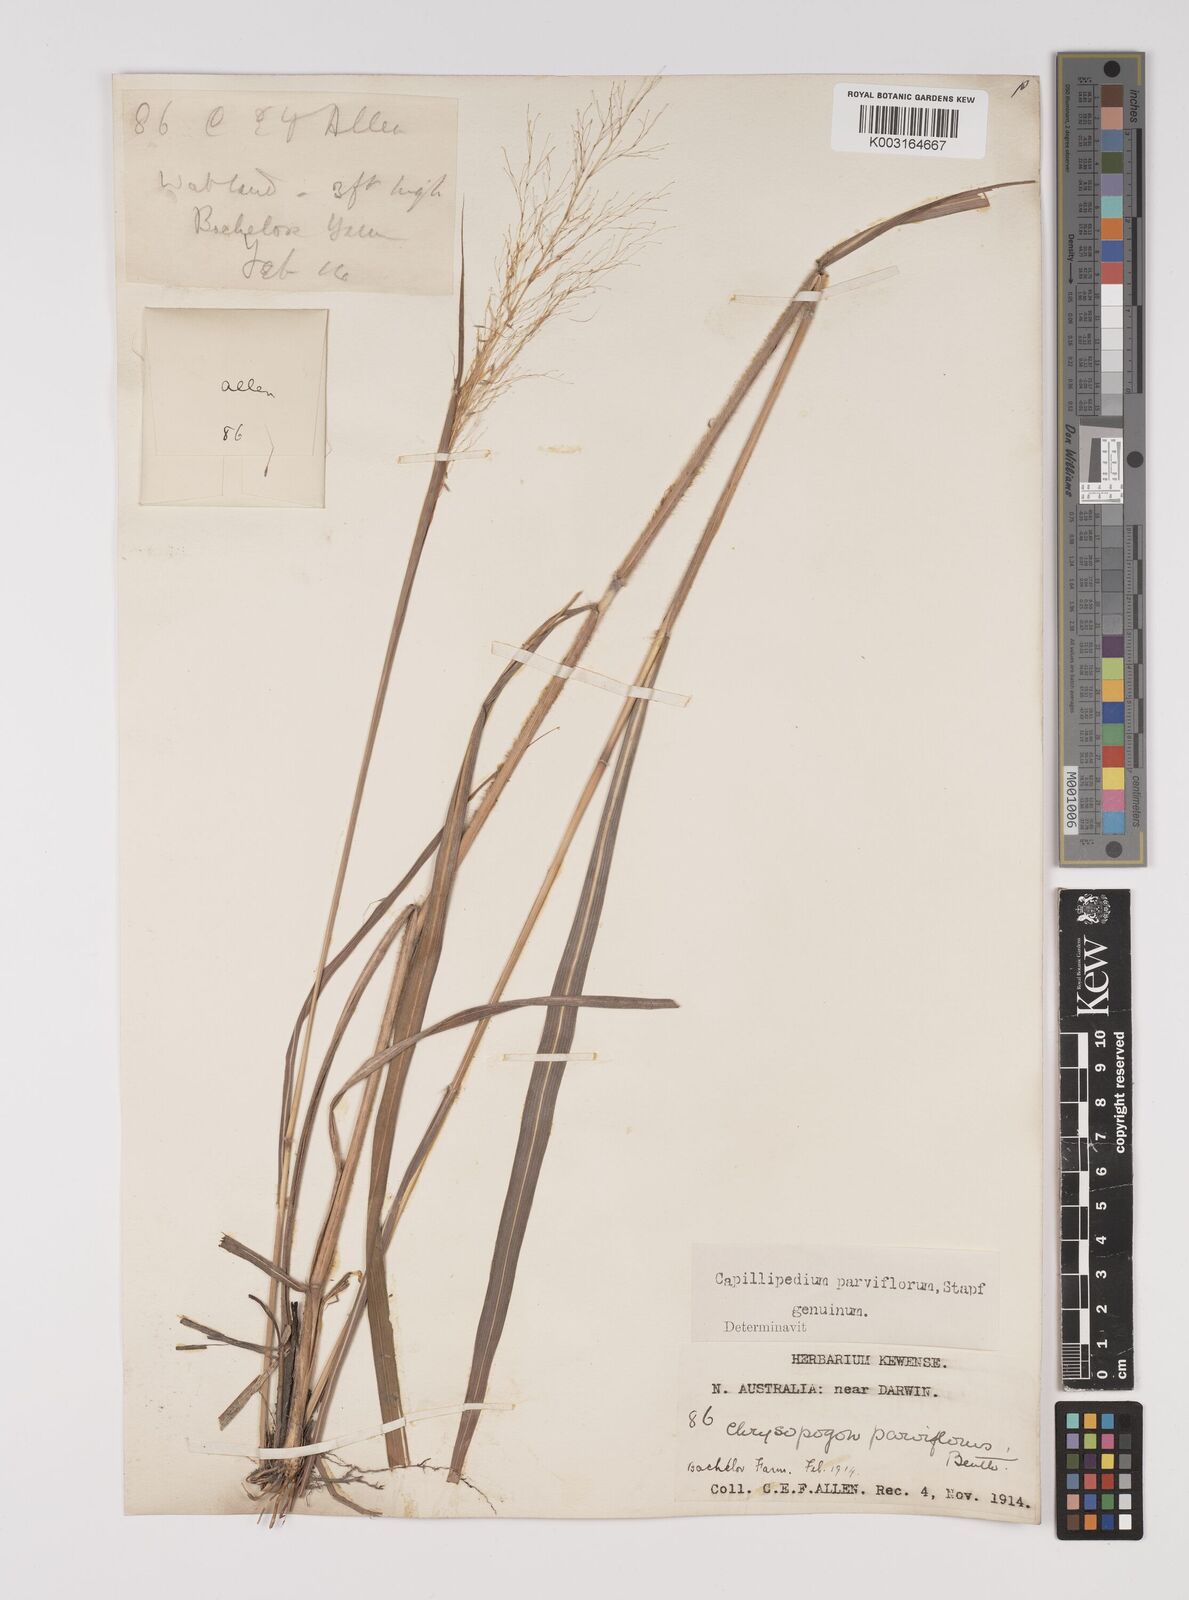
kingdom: Plantae
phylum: Tracheophyta
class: Liliopsida
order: Poales
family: Poaceae
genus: Capillipedium
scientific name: Capillipedium parviflorum
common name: Golden-beard
